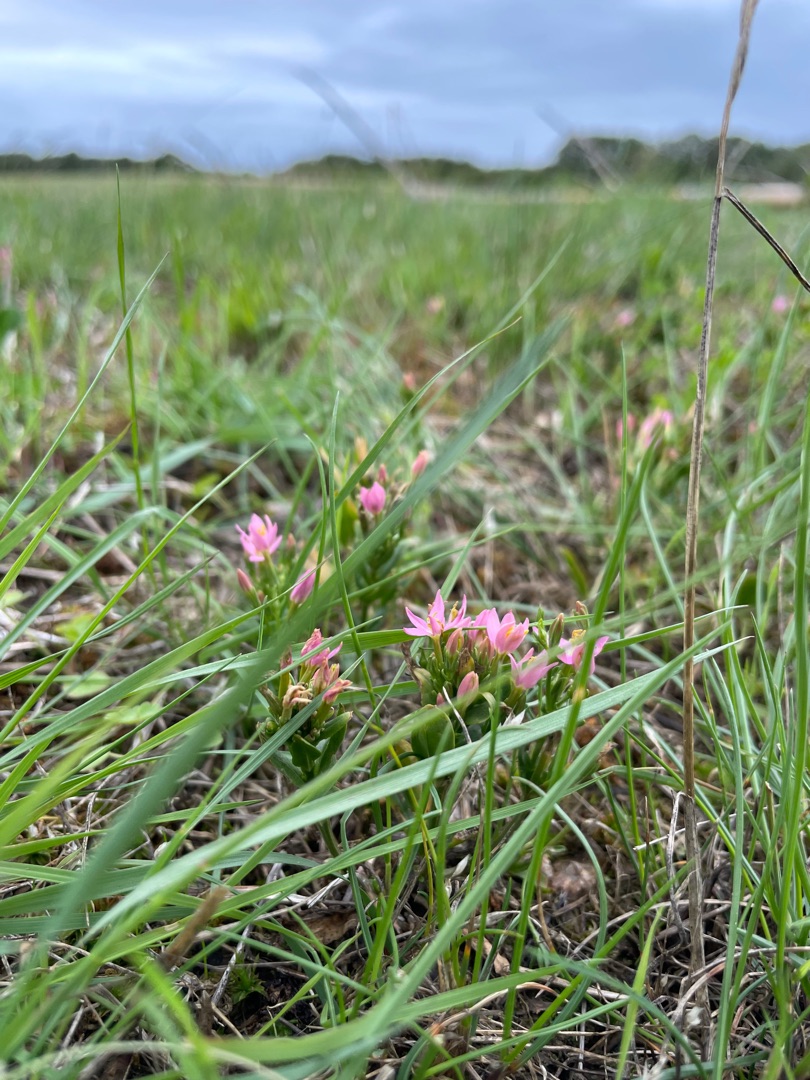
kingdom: Plantae
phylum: Tracheophyta
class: Magnoliopsida
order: Gentianales
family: Gentianaceae
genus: Centaurium
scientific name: Centaurium erythraea
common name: Mark-tusindgylden
